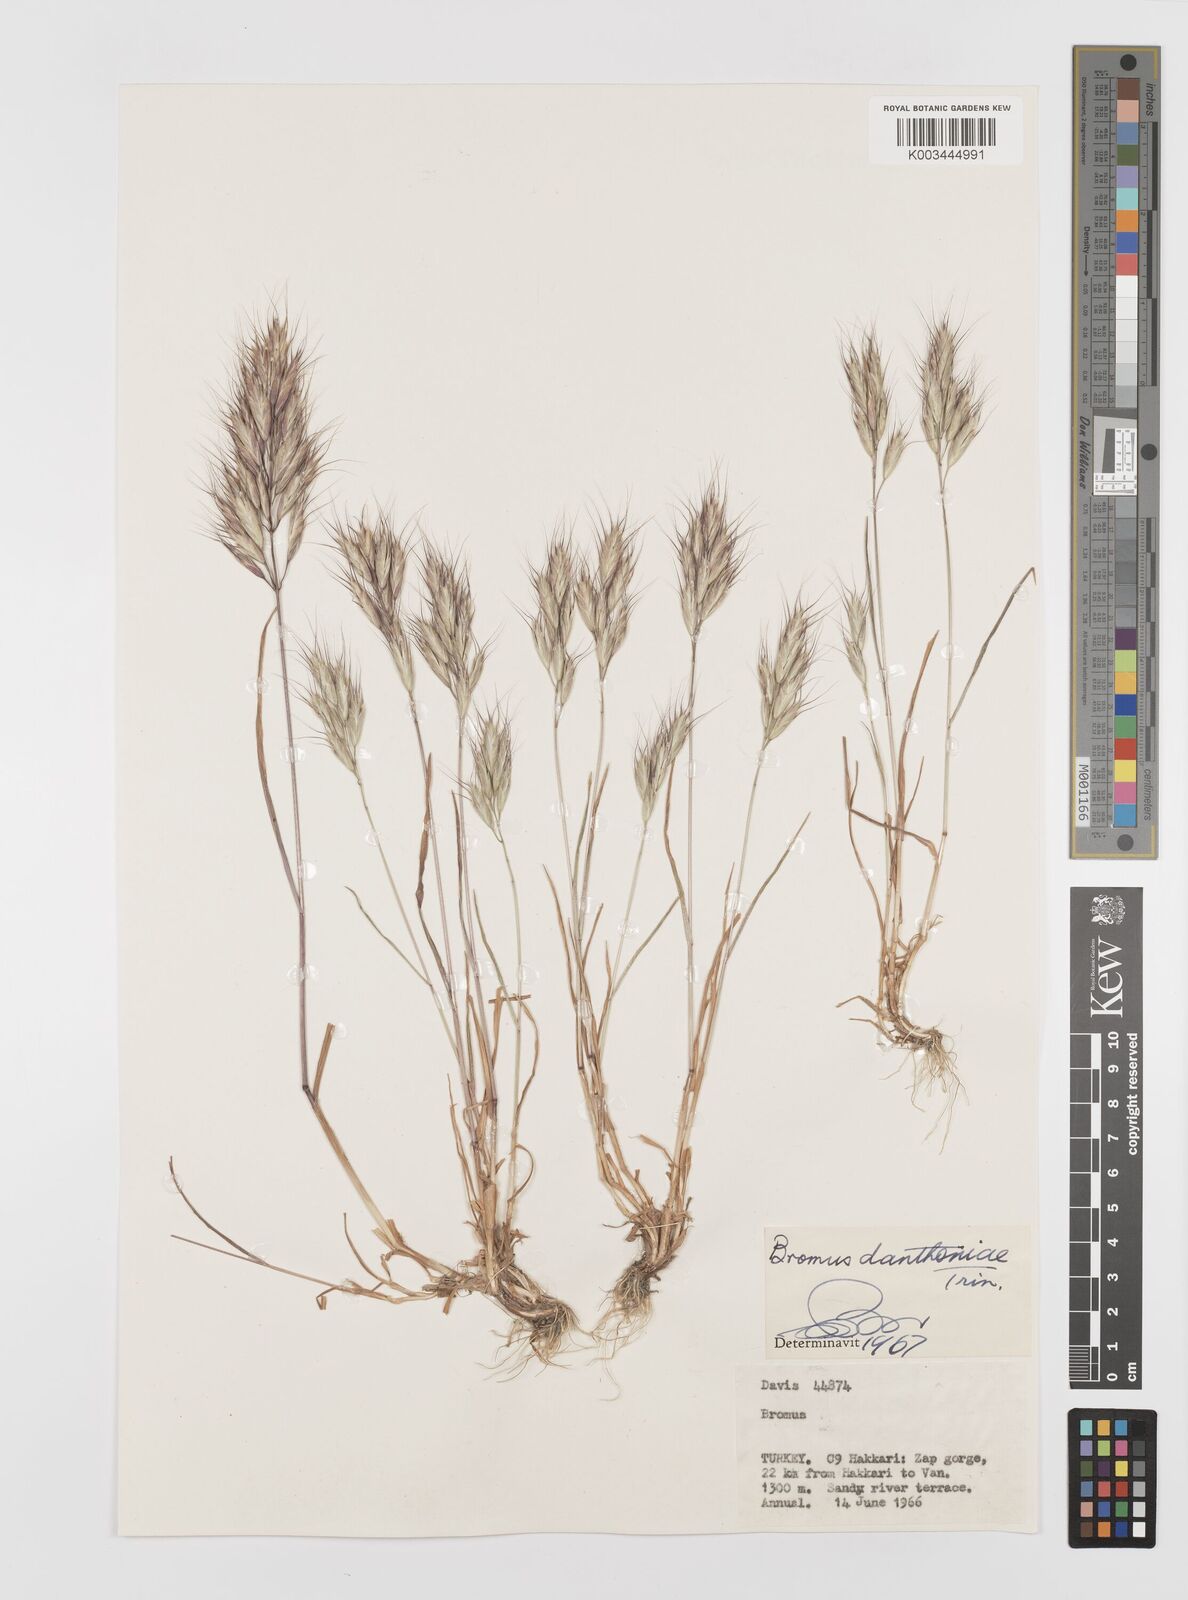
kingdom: Plantae
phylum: Tracheophyta
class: Liliopsida
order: Poales
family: Poaceae
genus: Bromus
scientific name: Bromus danthoniae
